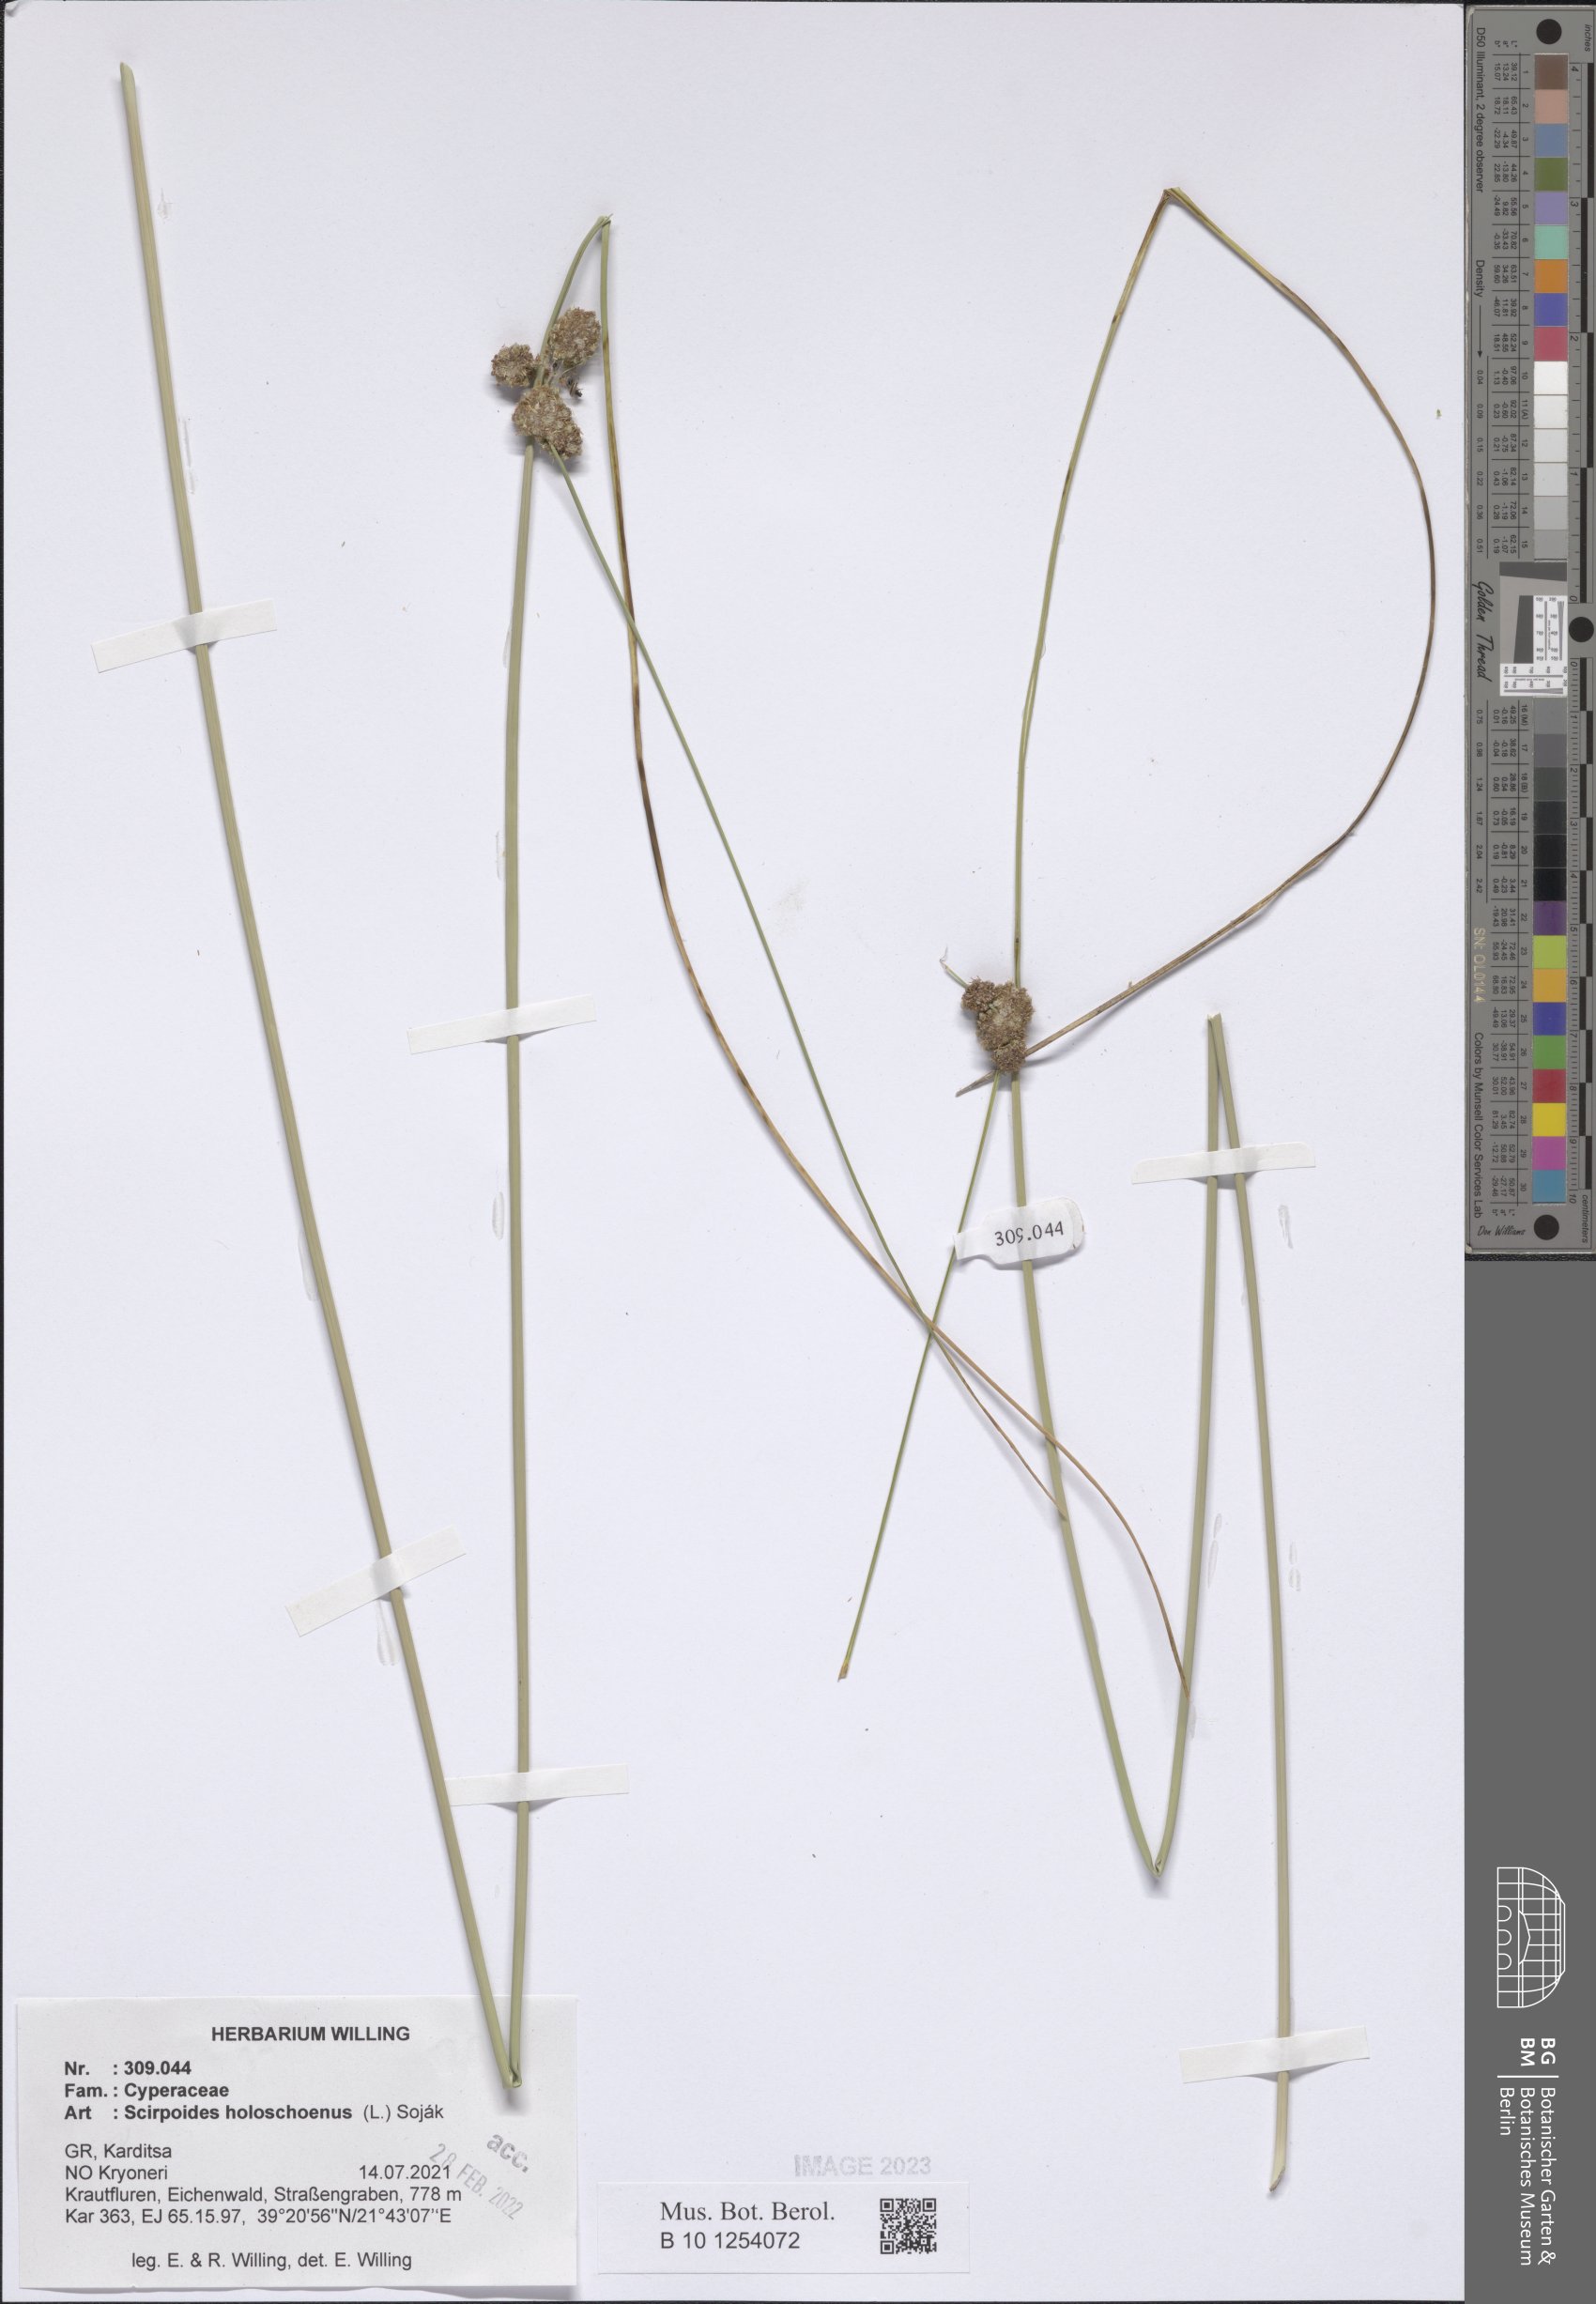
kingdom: Plantae
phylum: Tracheophyta
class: Liliopsida
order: Poales
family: Cyperaceae
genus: Scirpoides
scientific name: Scirpoides
